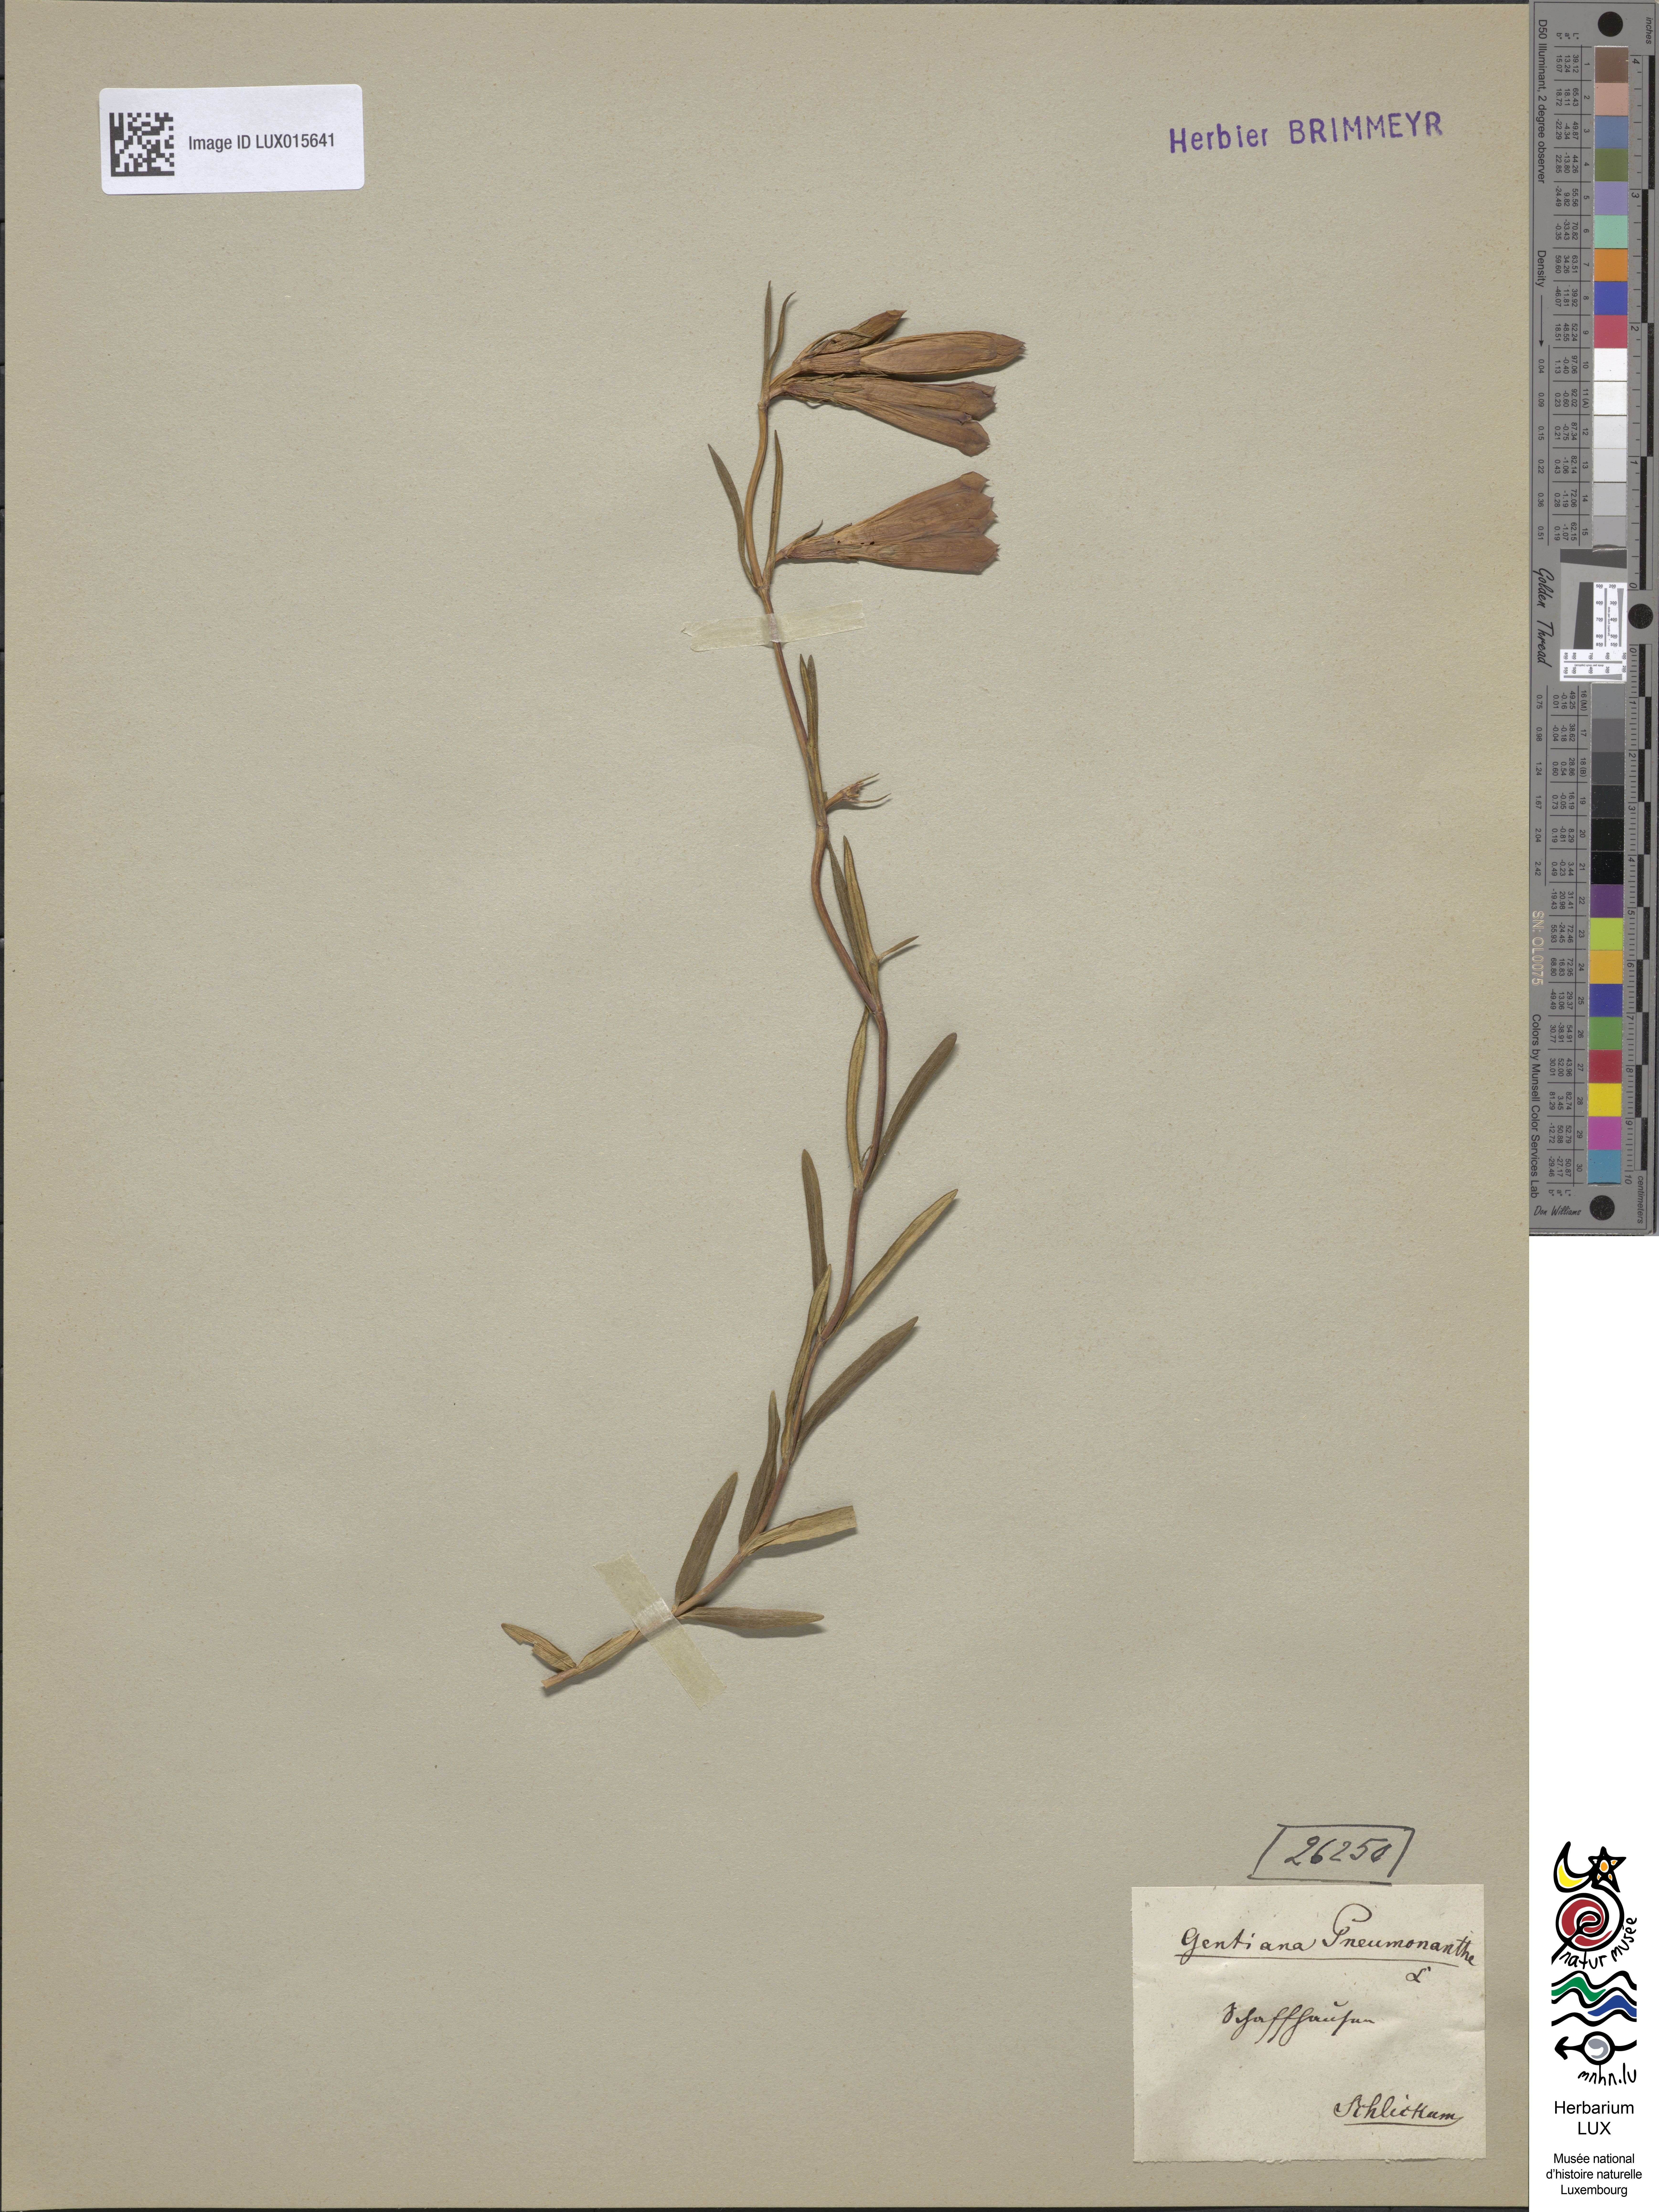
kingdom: Plantae
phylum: Tracheophyta
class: Magnoliopsida
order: Gentianales
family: Gentianaceae
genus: Gentiana
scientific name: Gentiana pneumonanthe
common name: Marsh gentian
